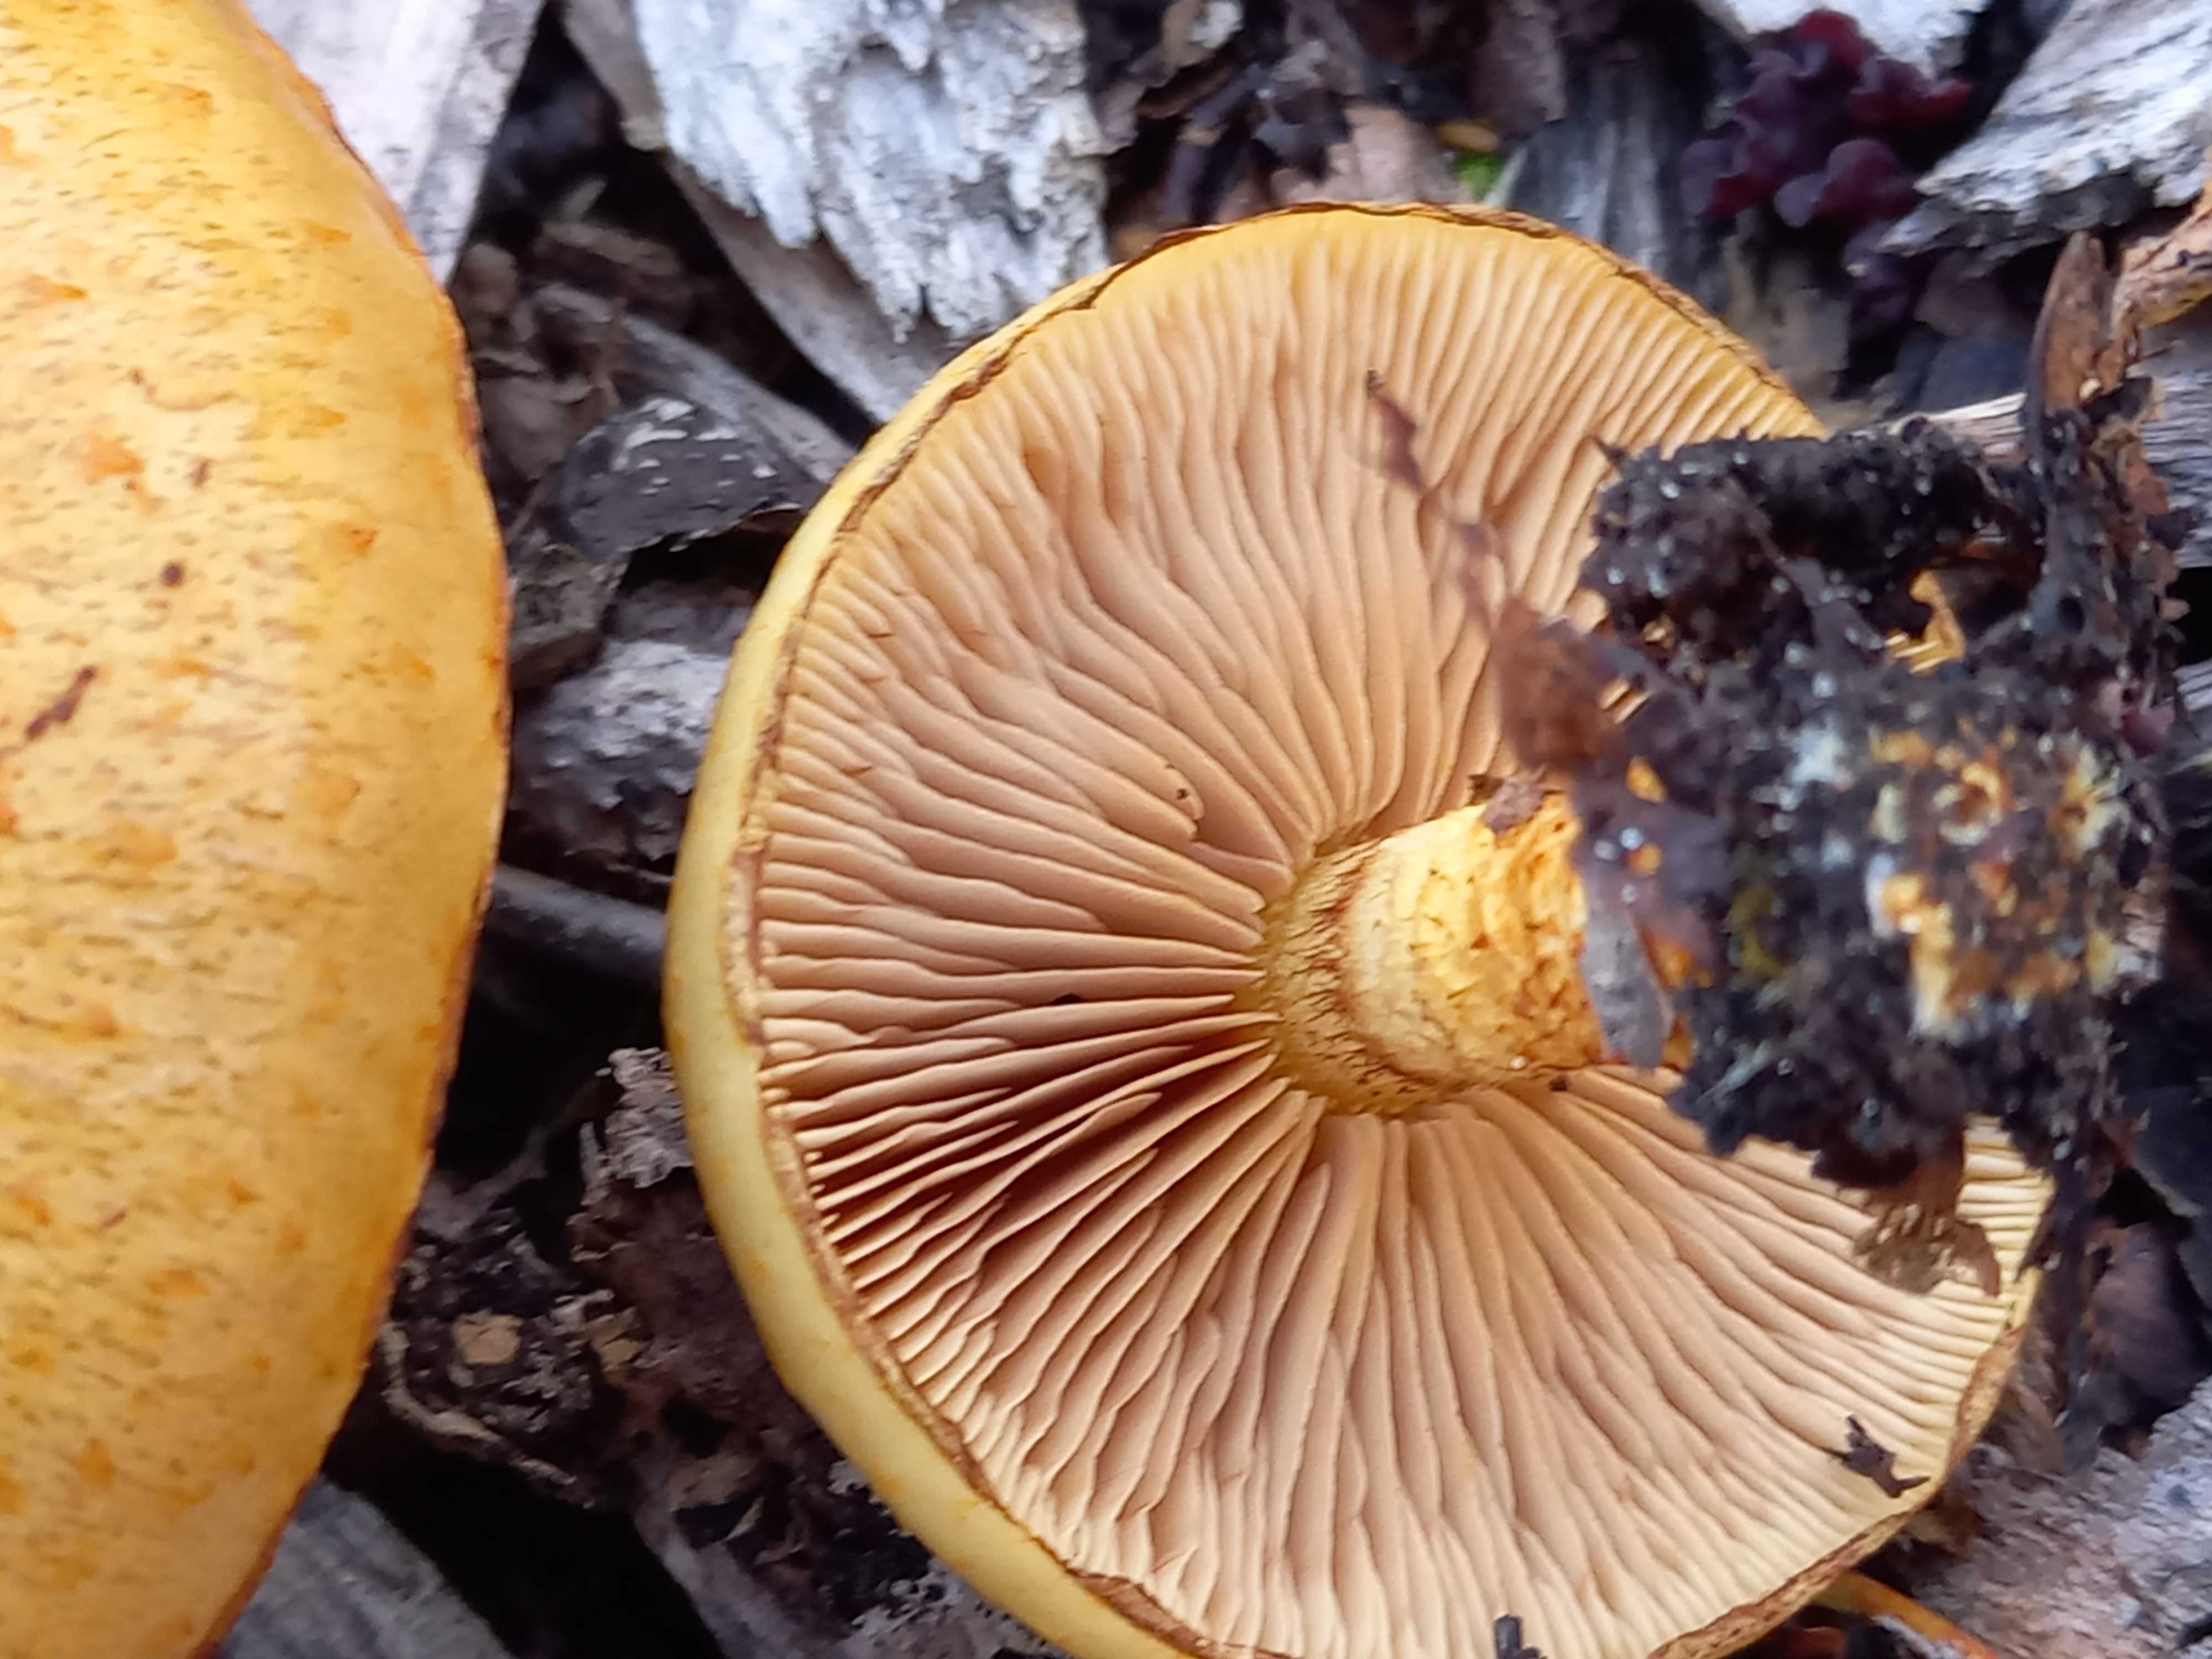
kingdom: Fungi
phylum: Basidiomycota
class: Agaricomycetes
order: Agaricales
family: Strophariaceae
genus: Pholiota
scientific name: Pholiota adiposa
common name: højtsiddende skælhat
